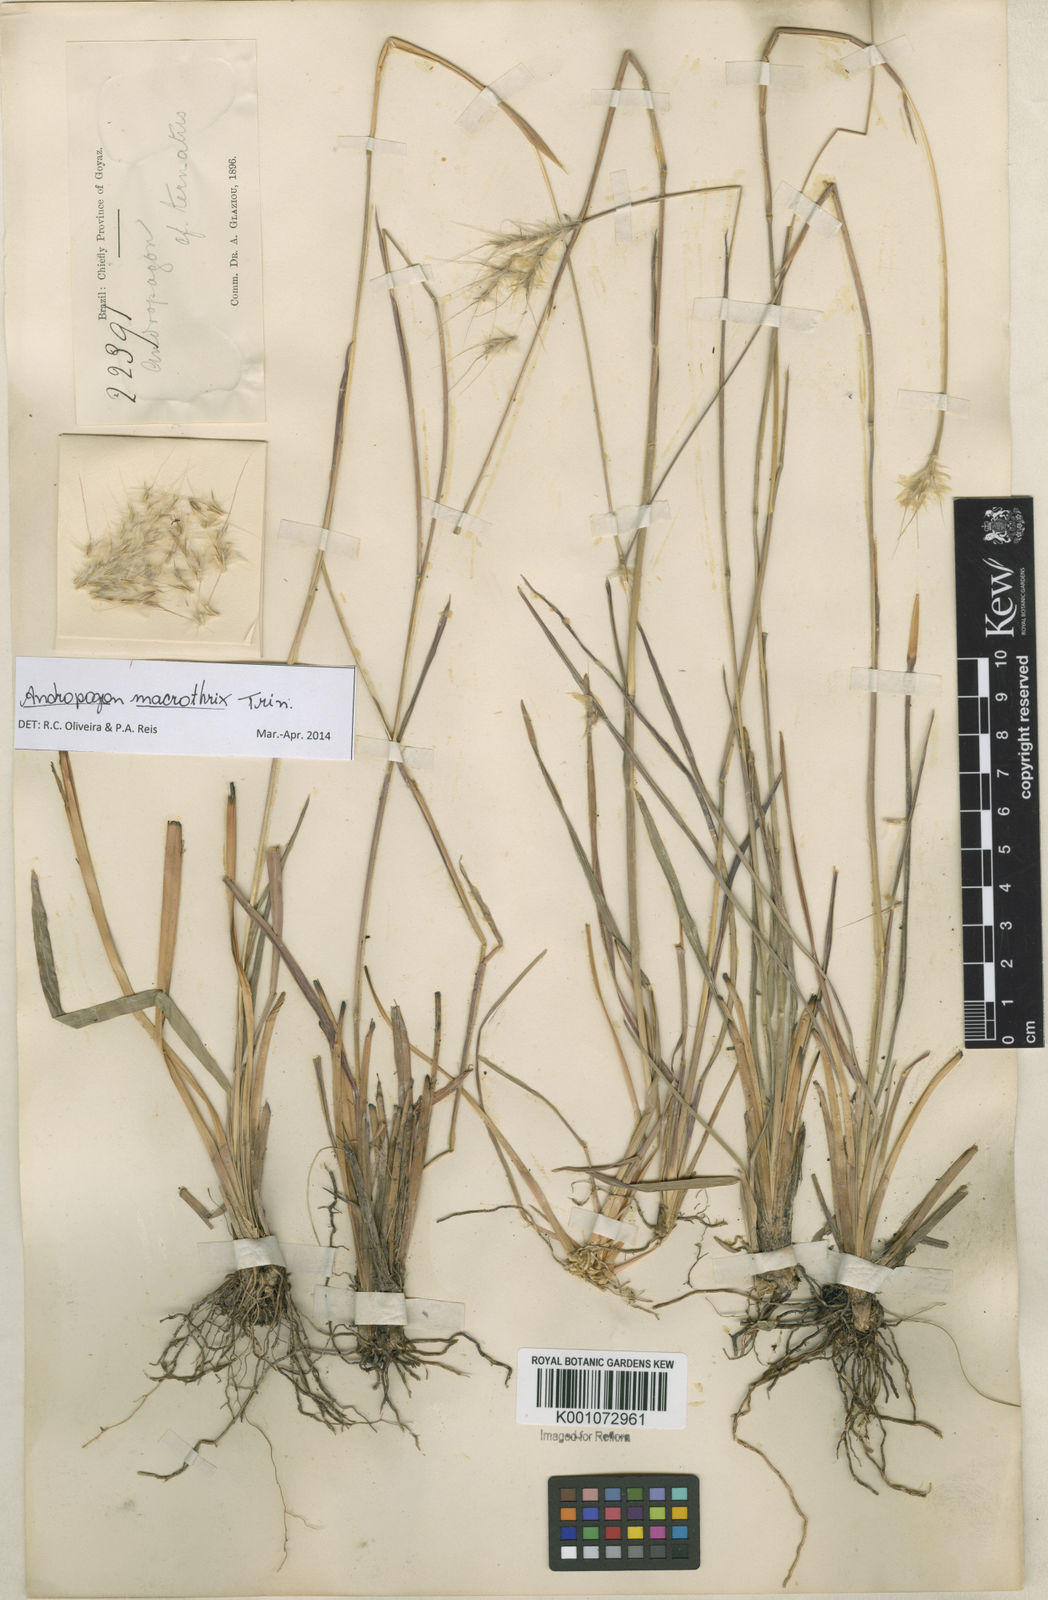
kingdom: Plantae
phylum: Tracheophyta
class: Liliopsida
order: Poales
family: Poaceae
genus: Andropogon
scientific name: Andropogon macrothrix
